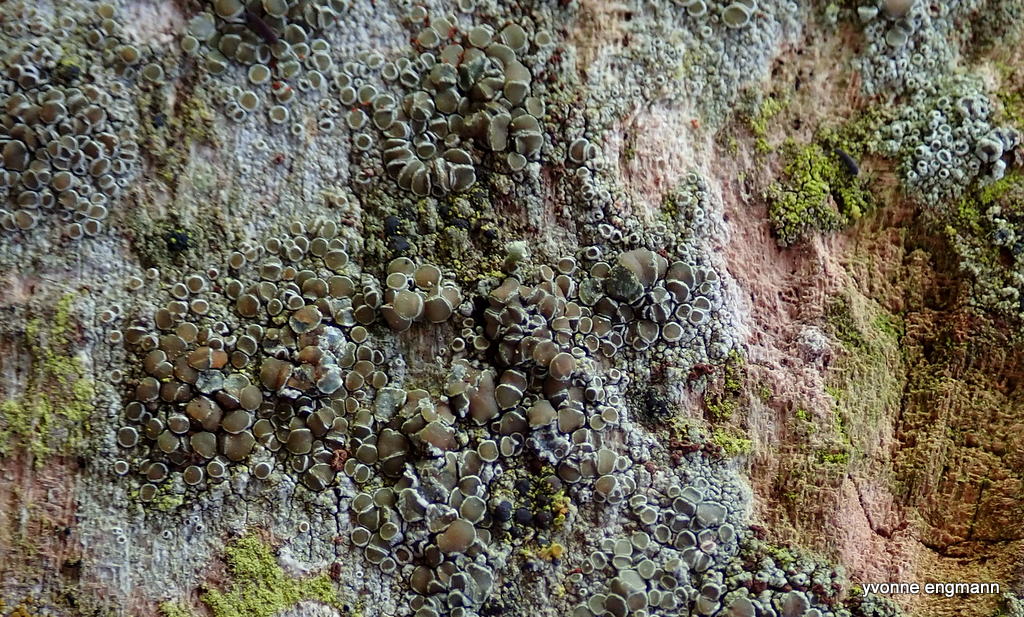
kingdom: Fungi
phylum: Ascomycota
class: Lecanoromycetes
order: Lecanorales
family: Lecanoraceae
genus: Lecanora
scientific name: Lecanora chlarotera
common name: brun kantskivelav
